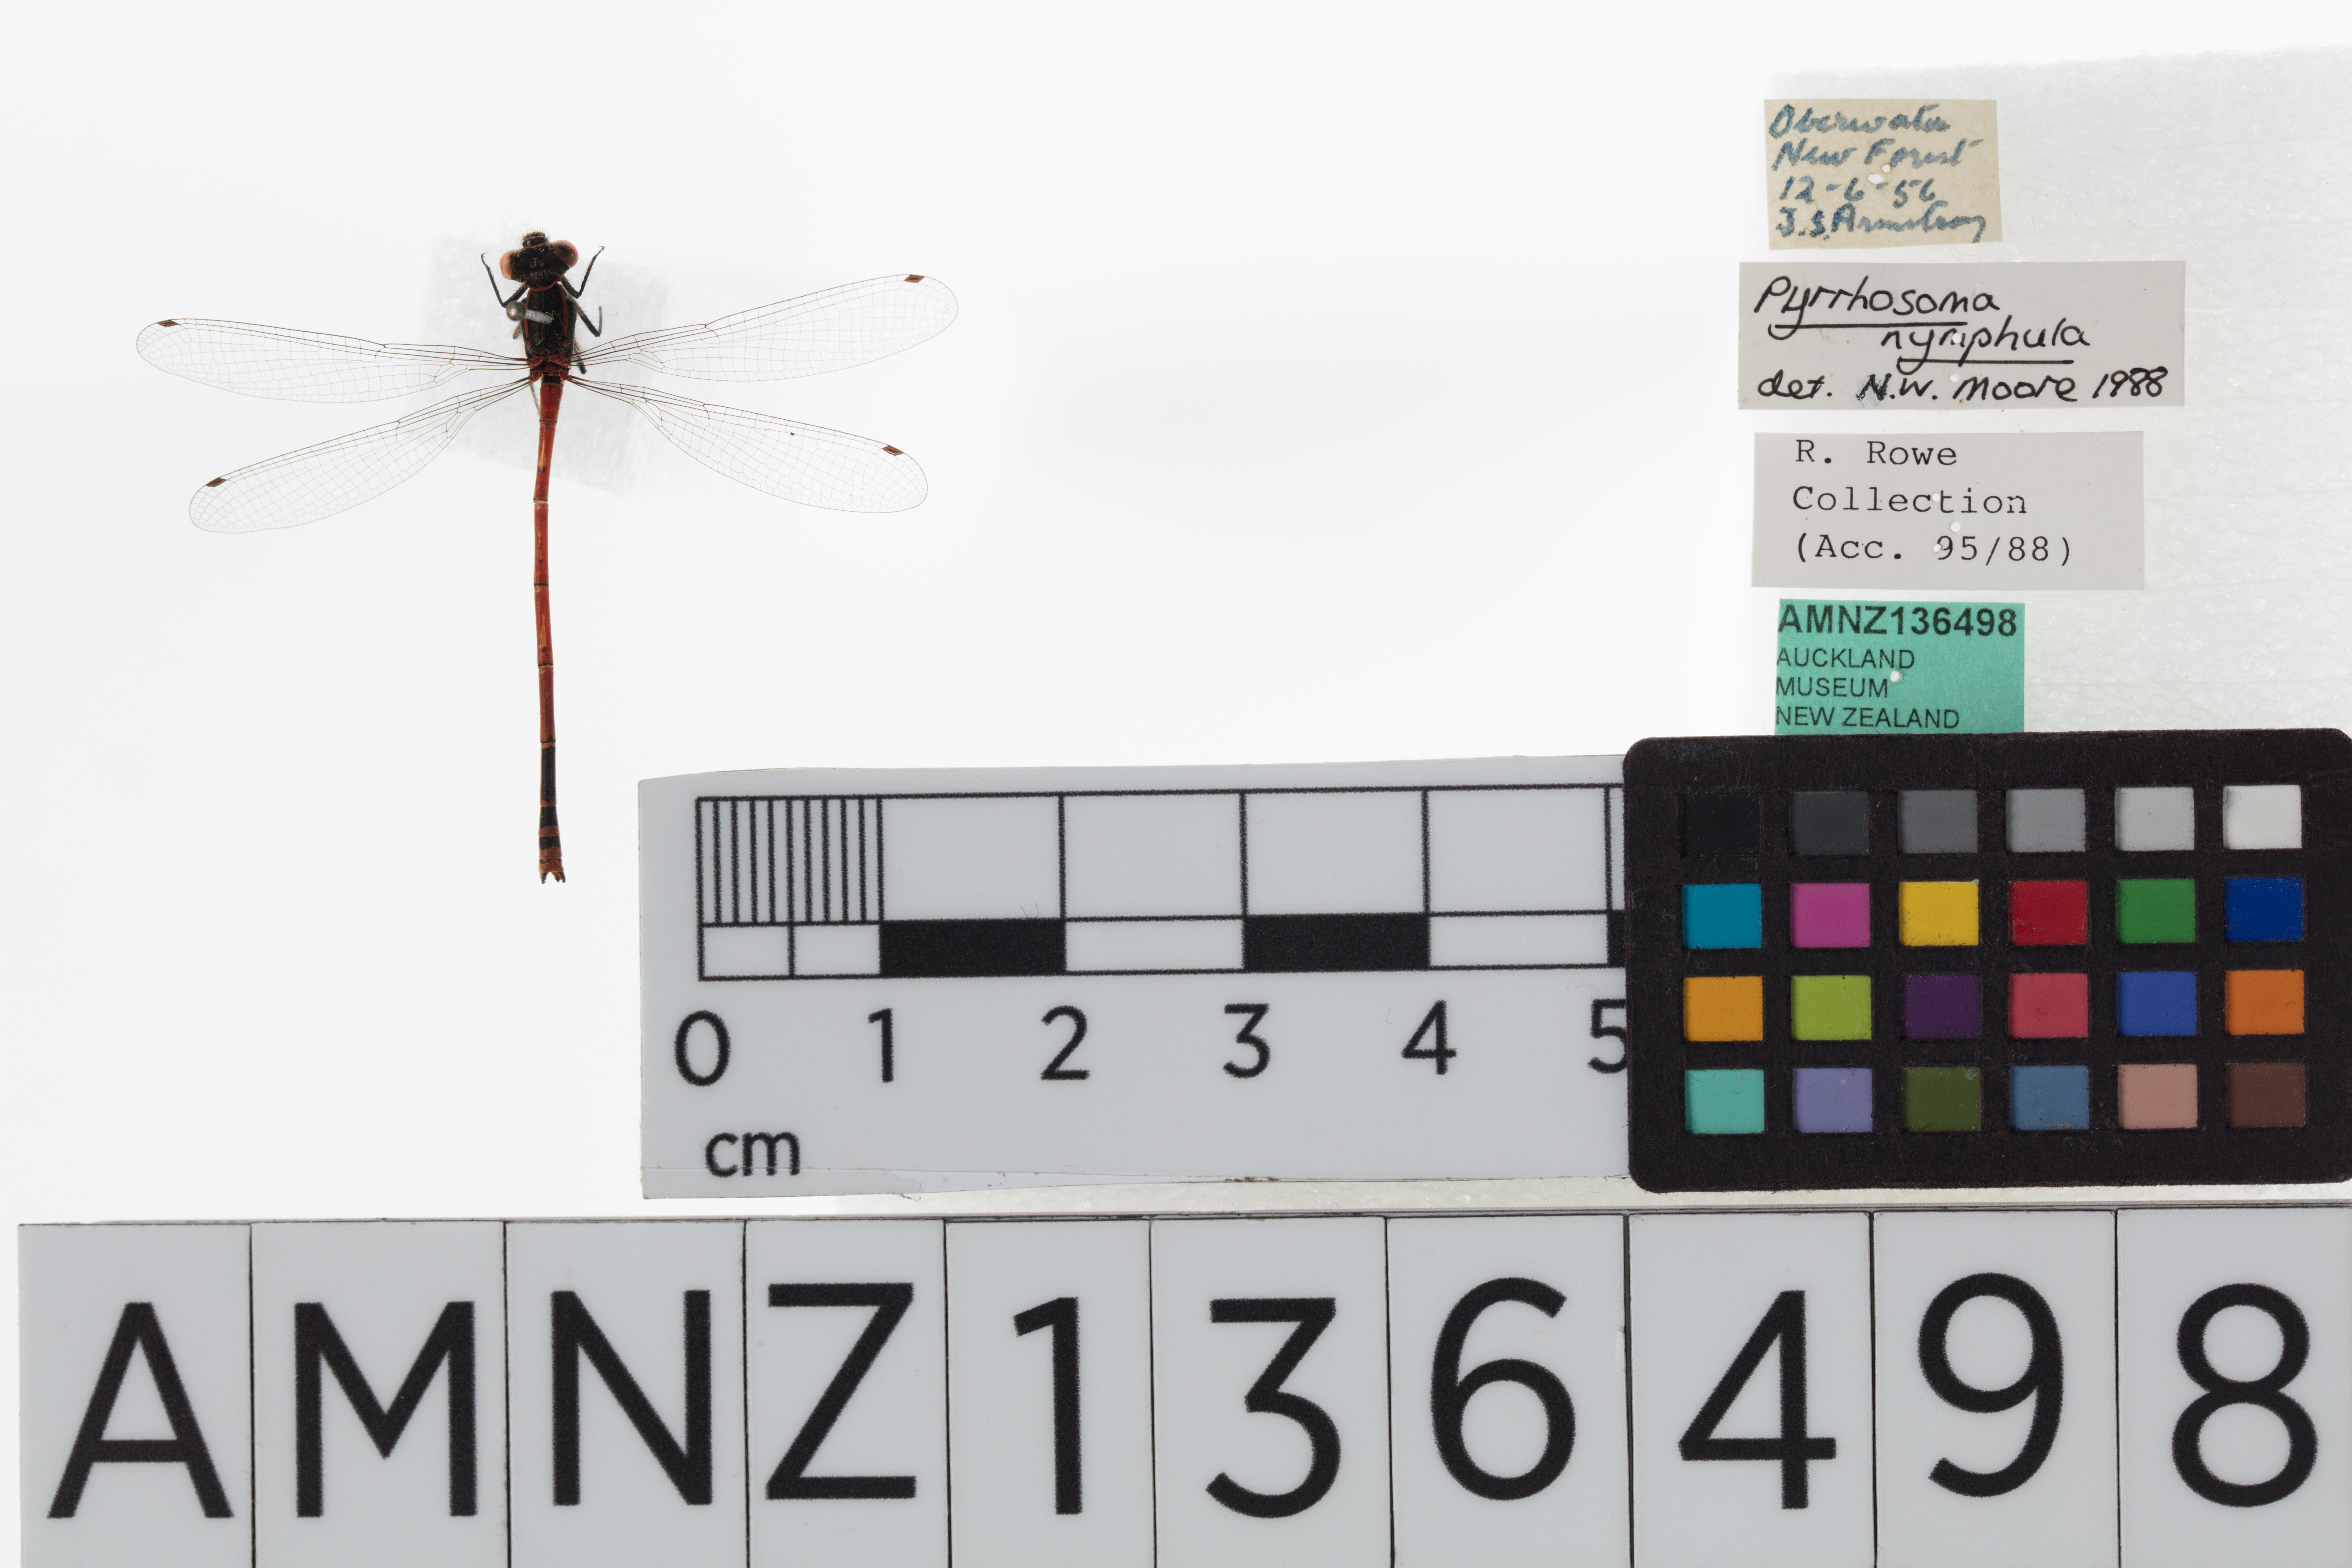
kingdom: Animalia
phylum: Arthropoda
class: Insecta
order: Odonata
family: Coenagrionidae
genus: Pyrrhosoma
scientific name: Pyrrhosoma nymphula
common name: Large red damsel
